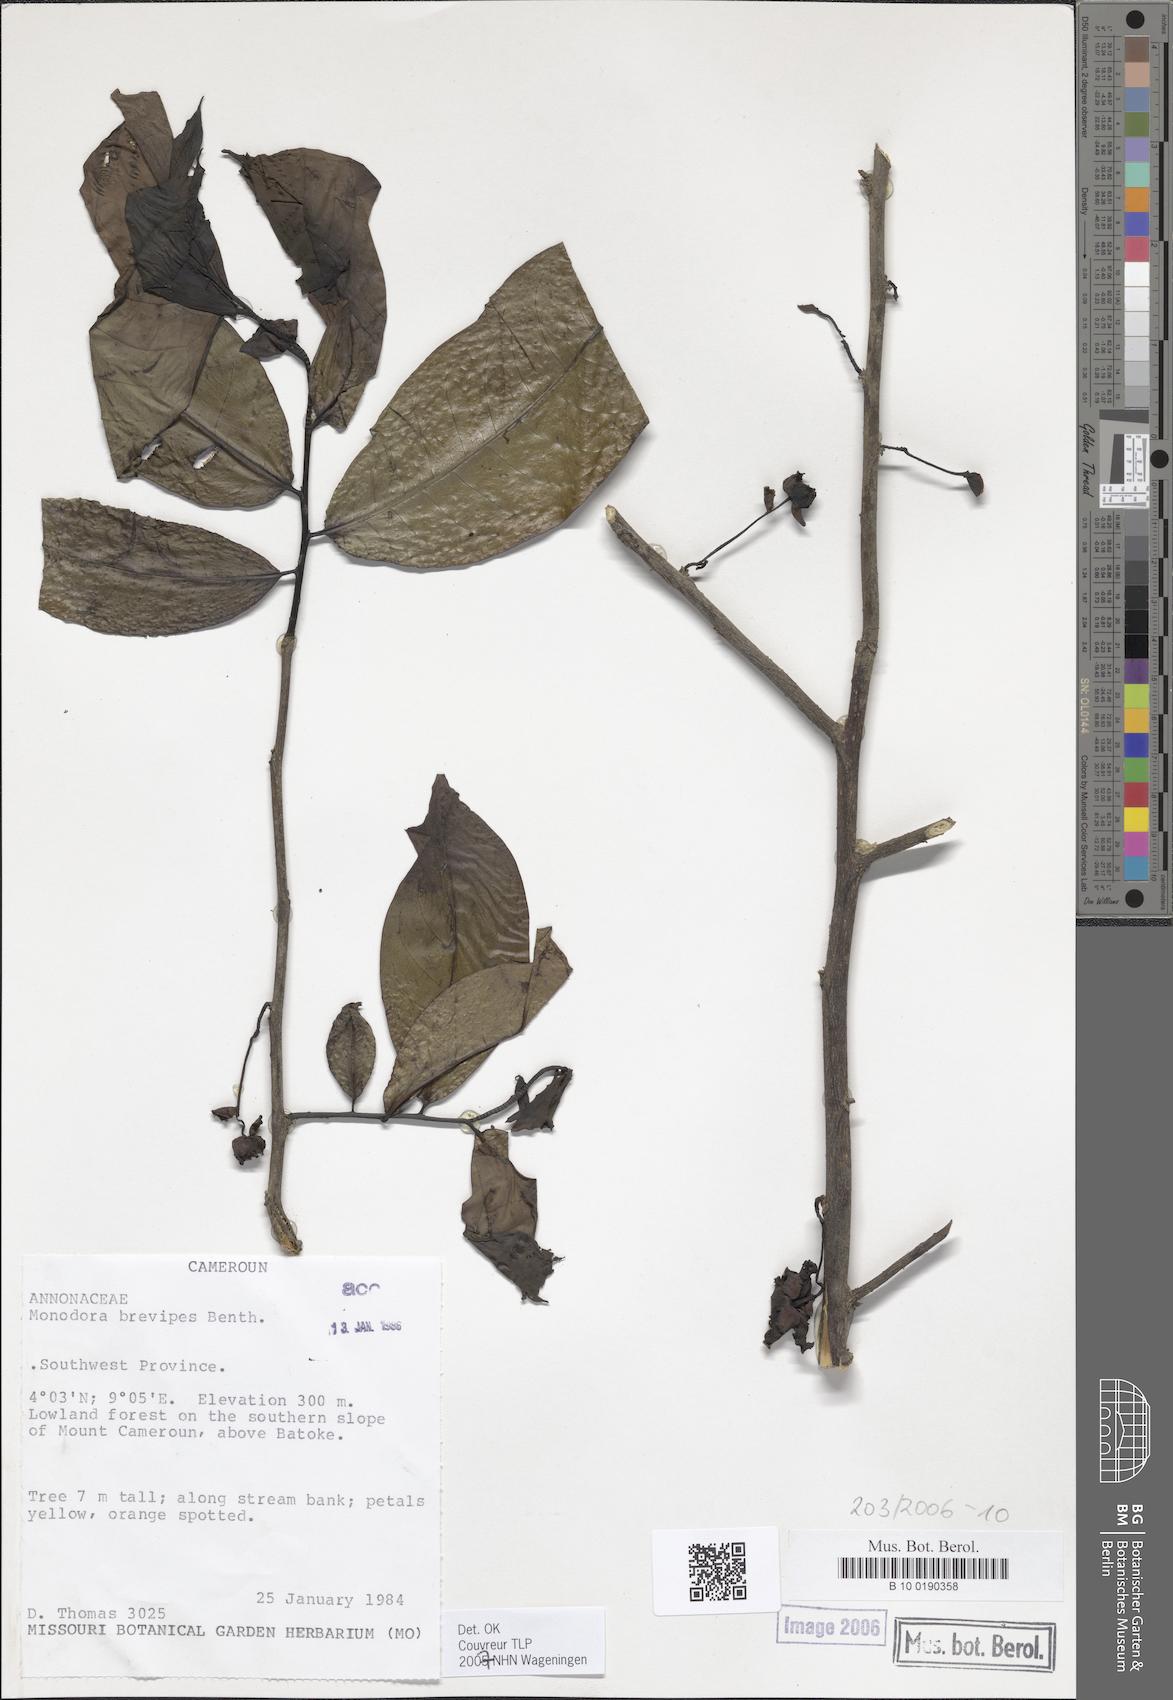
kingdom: Plantae
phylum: Tracheophyta
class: Magnoliopsida
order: Magnoliales
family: Annonaceae
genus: Monodora
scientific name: Monodora undulata
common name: Yellow-flower-nutmeg
